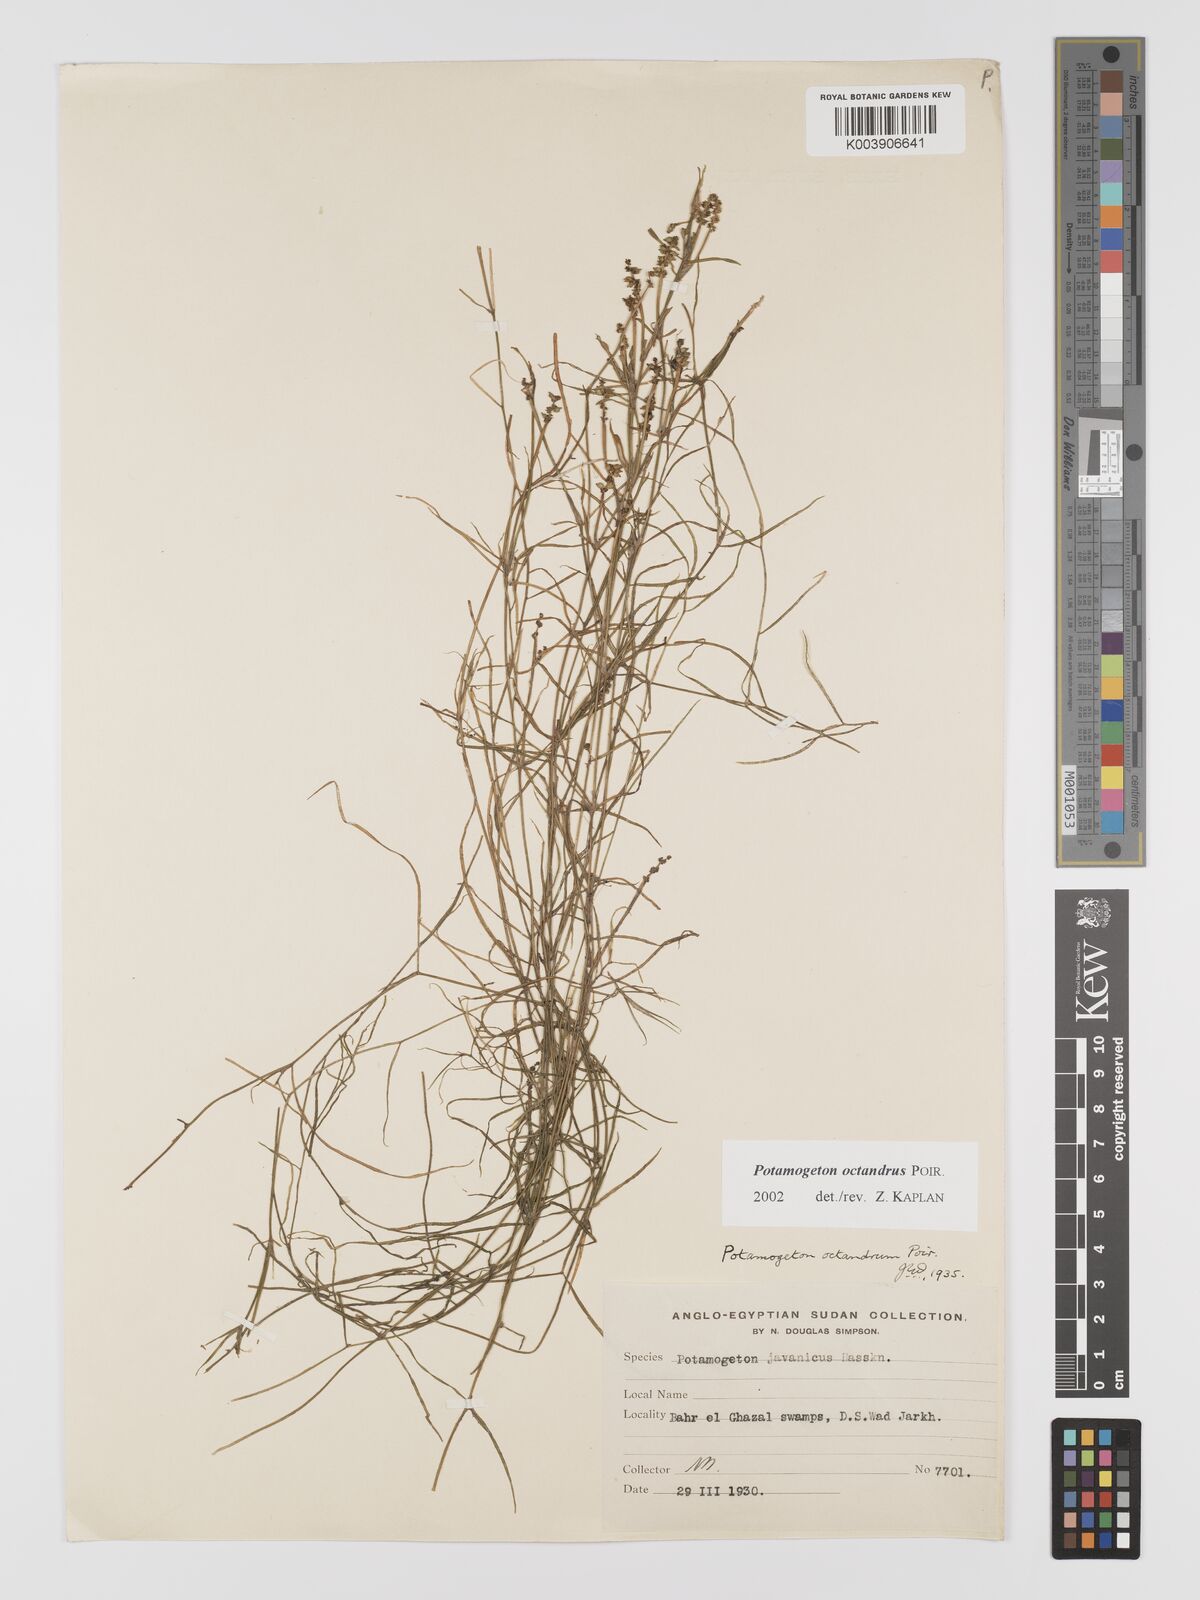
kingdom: Plantae
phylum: Tracheophyta
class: Liliopsida
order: Alismatales
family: Potamogetonaceae
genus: Potamogeton
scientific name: Potamogeton octandrus
